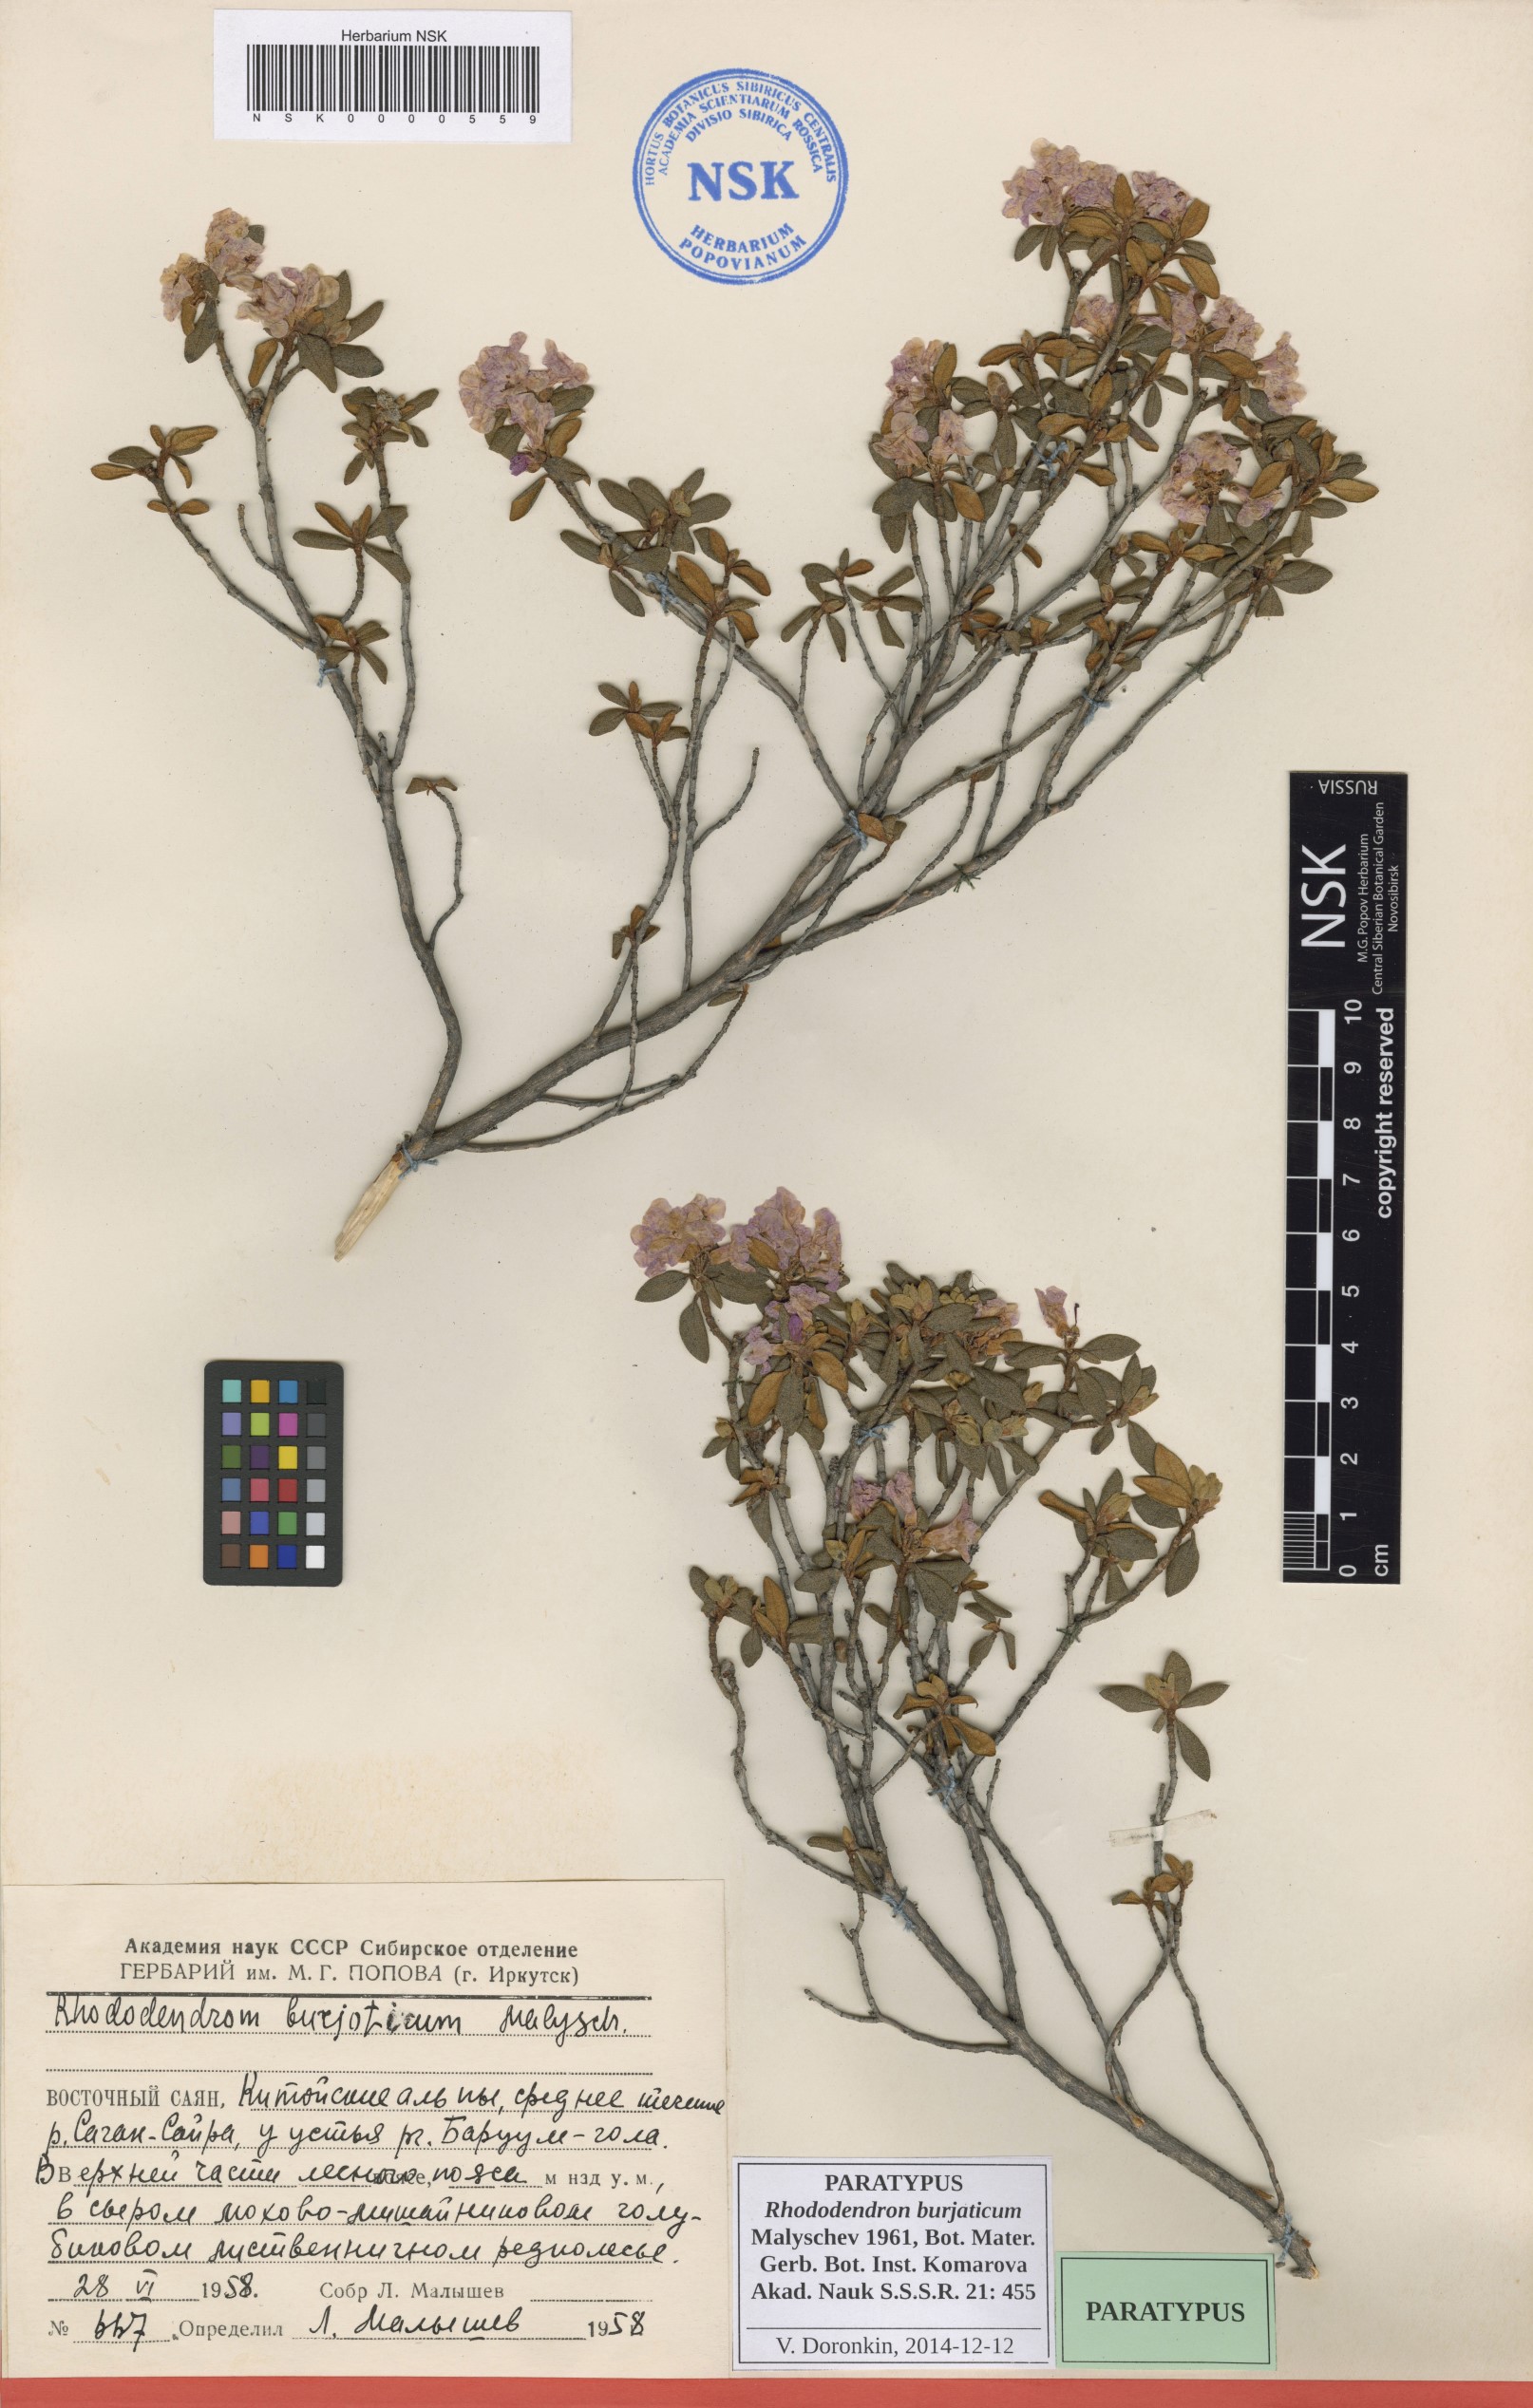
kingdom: Plantae
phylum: Tracheophyta
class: Magnoliopsida
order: Ericales
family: Ericaceae
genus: Rhododendron
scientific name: Rhododendron burjaticum
